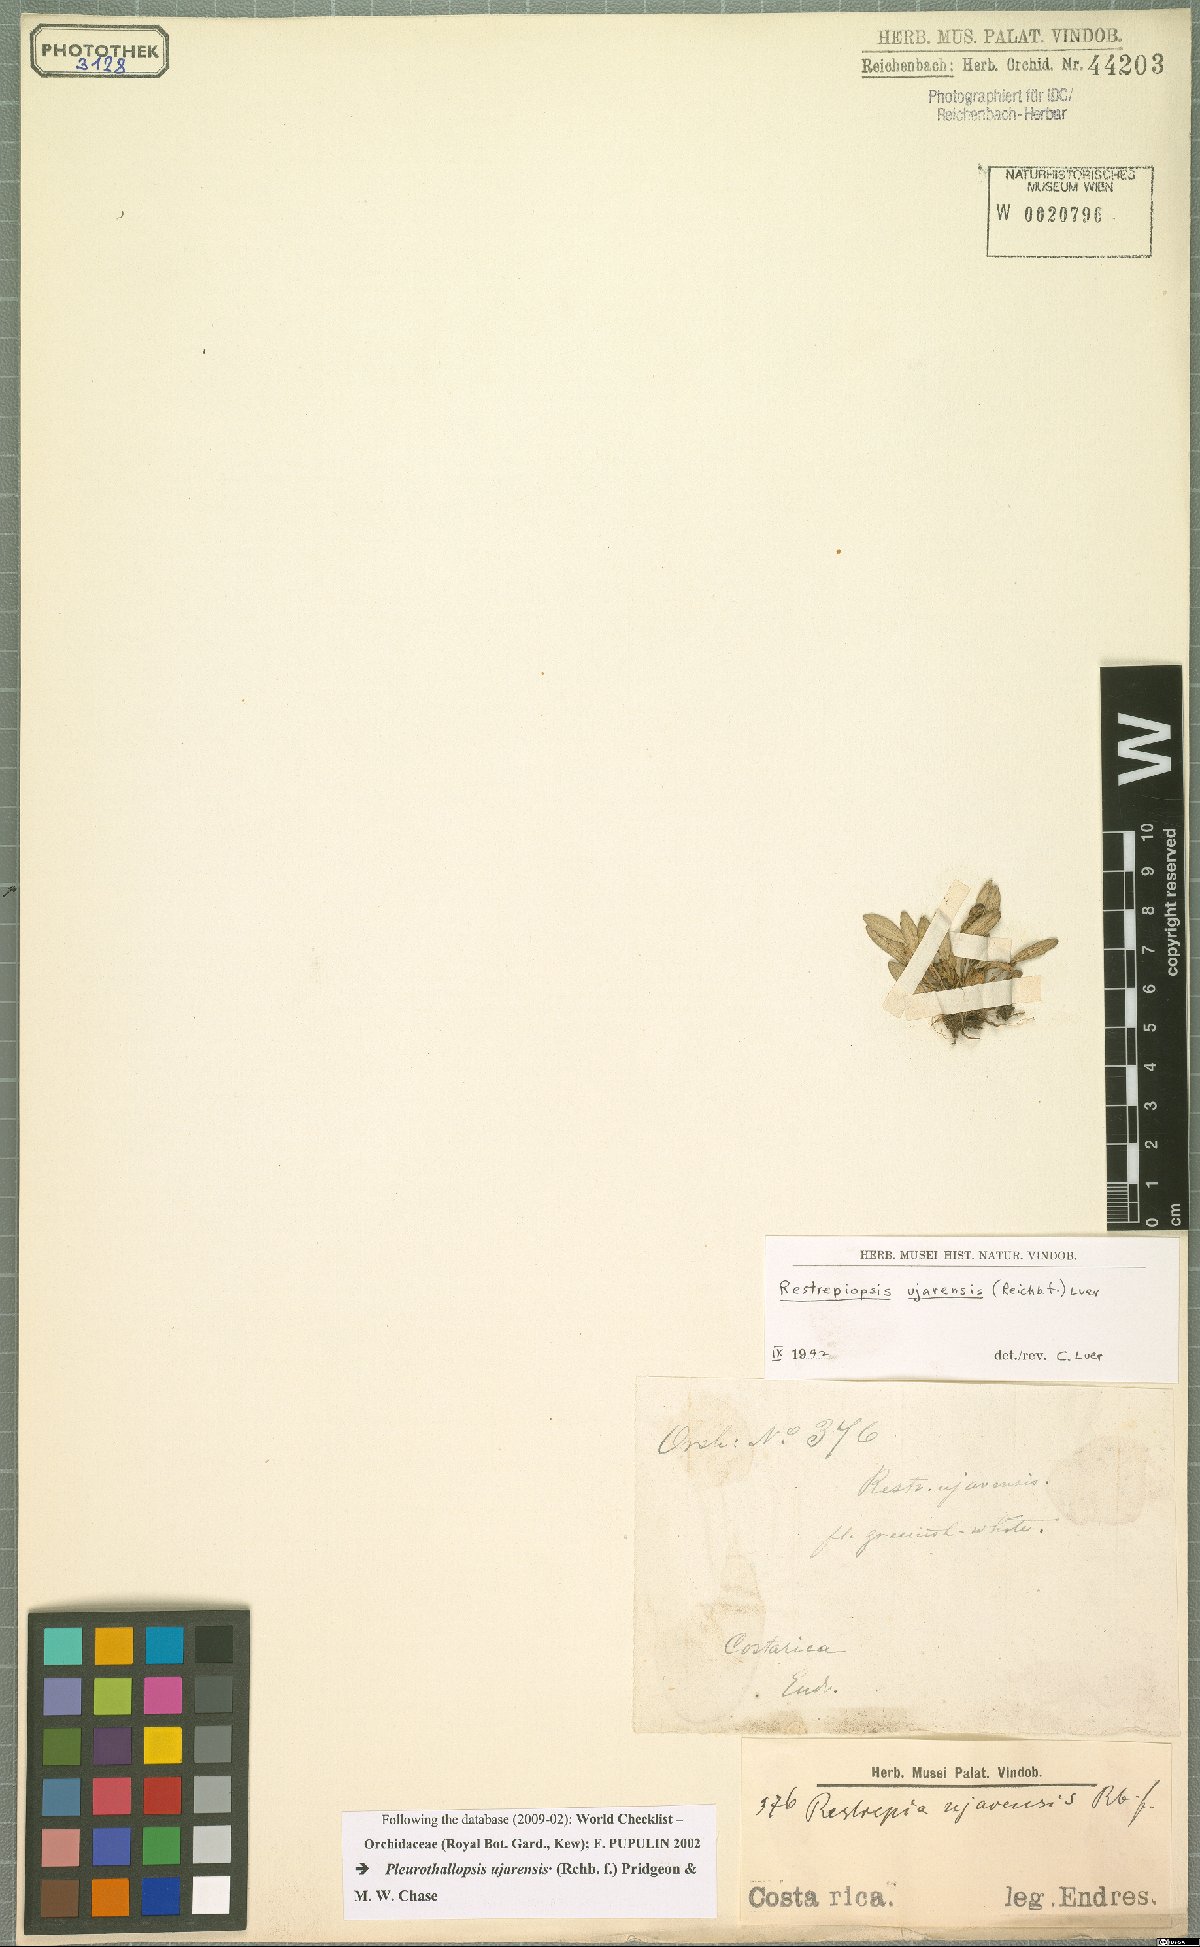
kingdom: Plantae
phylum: Tracheophyta
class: Liliopsida
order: Asparagales
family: Orchidaceae
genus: Pleurothallopsis
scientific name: Pleurothallopsis ujarensis
